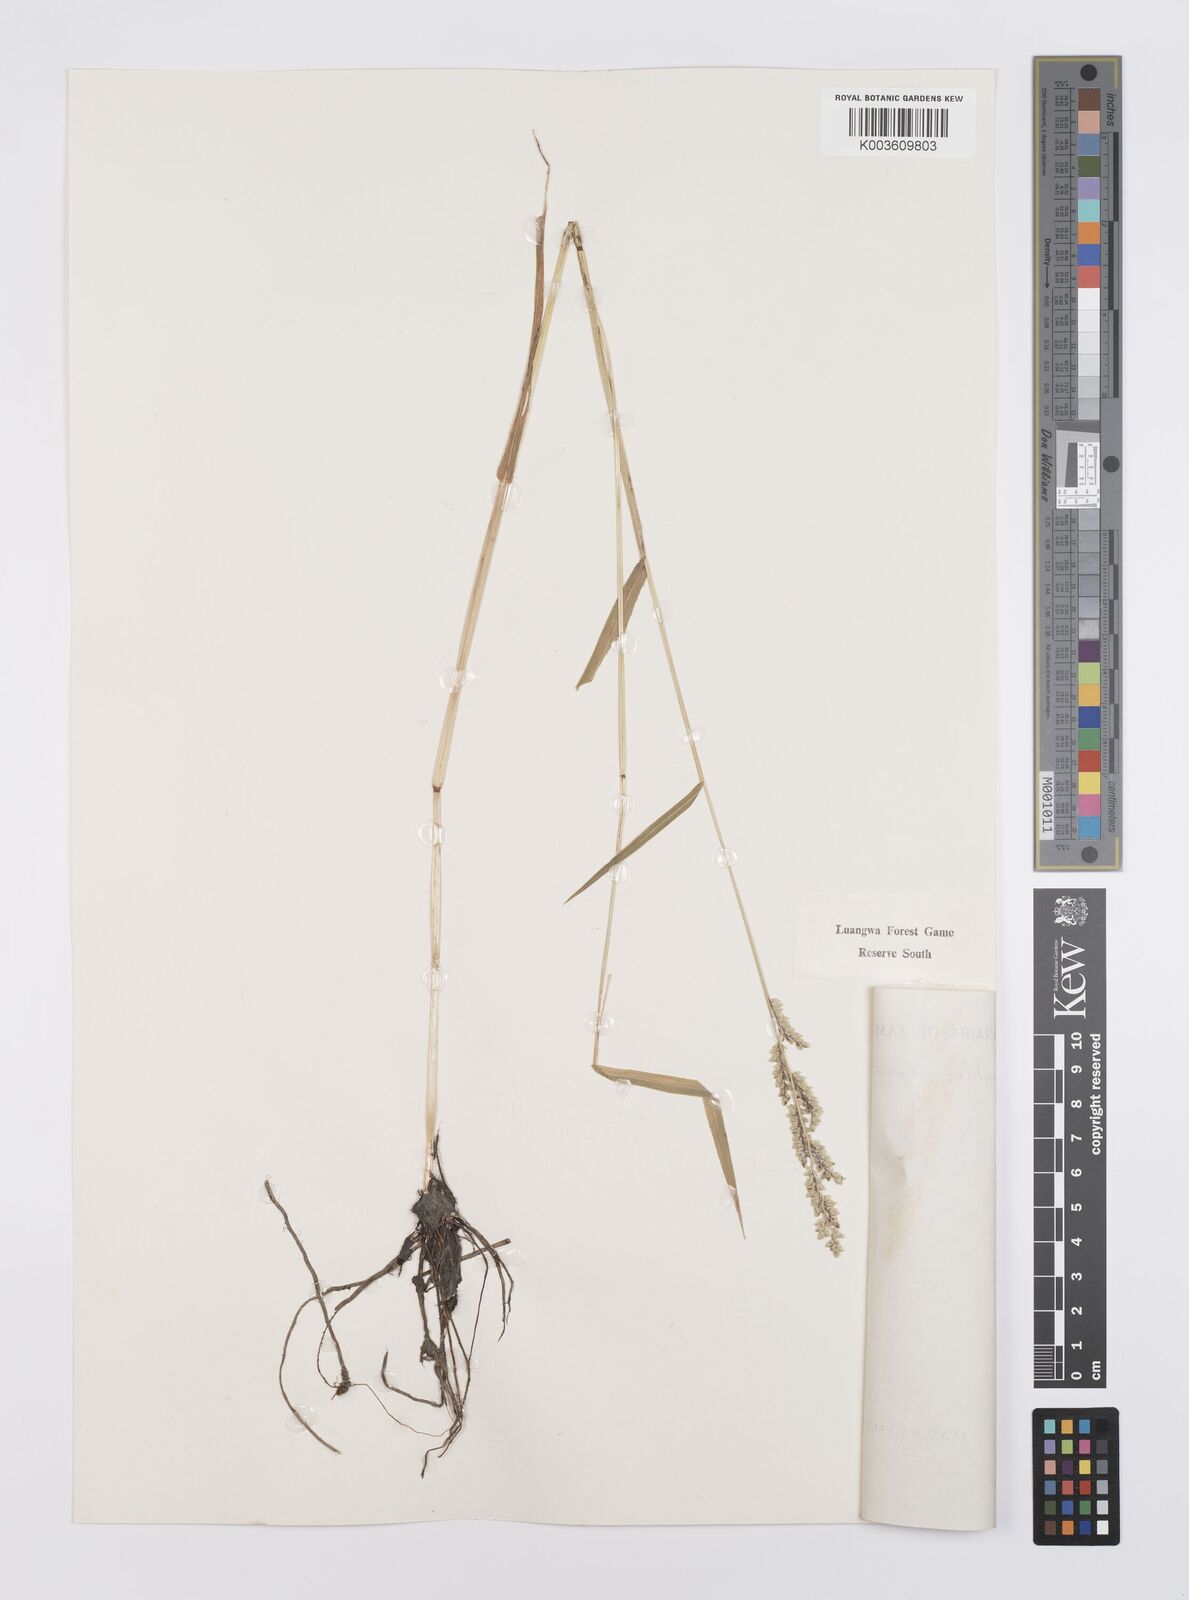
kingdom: Plantae
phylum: Tracheophyta
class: Liliopsida
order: Poales
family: Poaceae
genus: Echinochloa
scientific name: Echinochloa colonum
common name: Jungle rice
